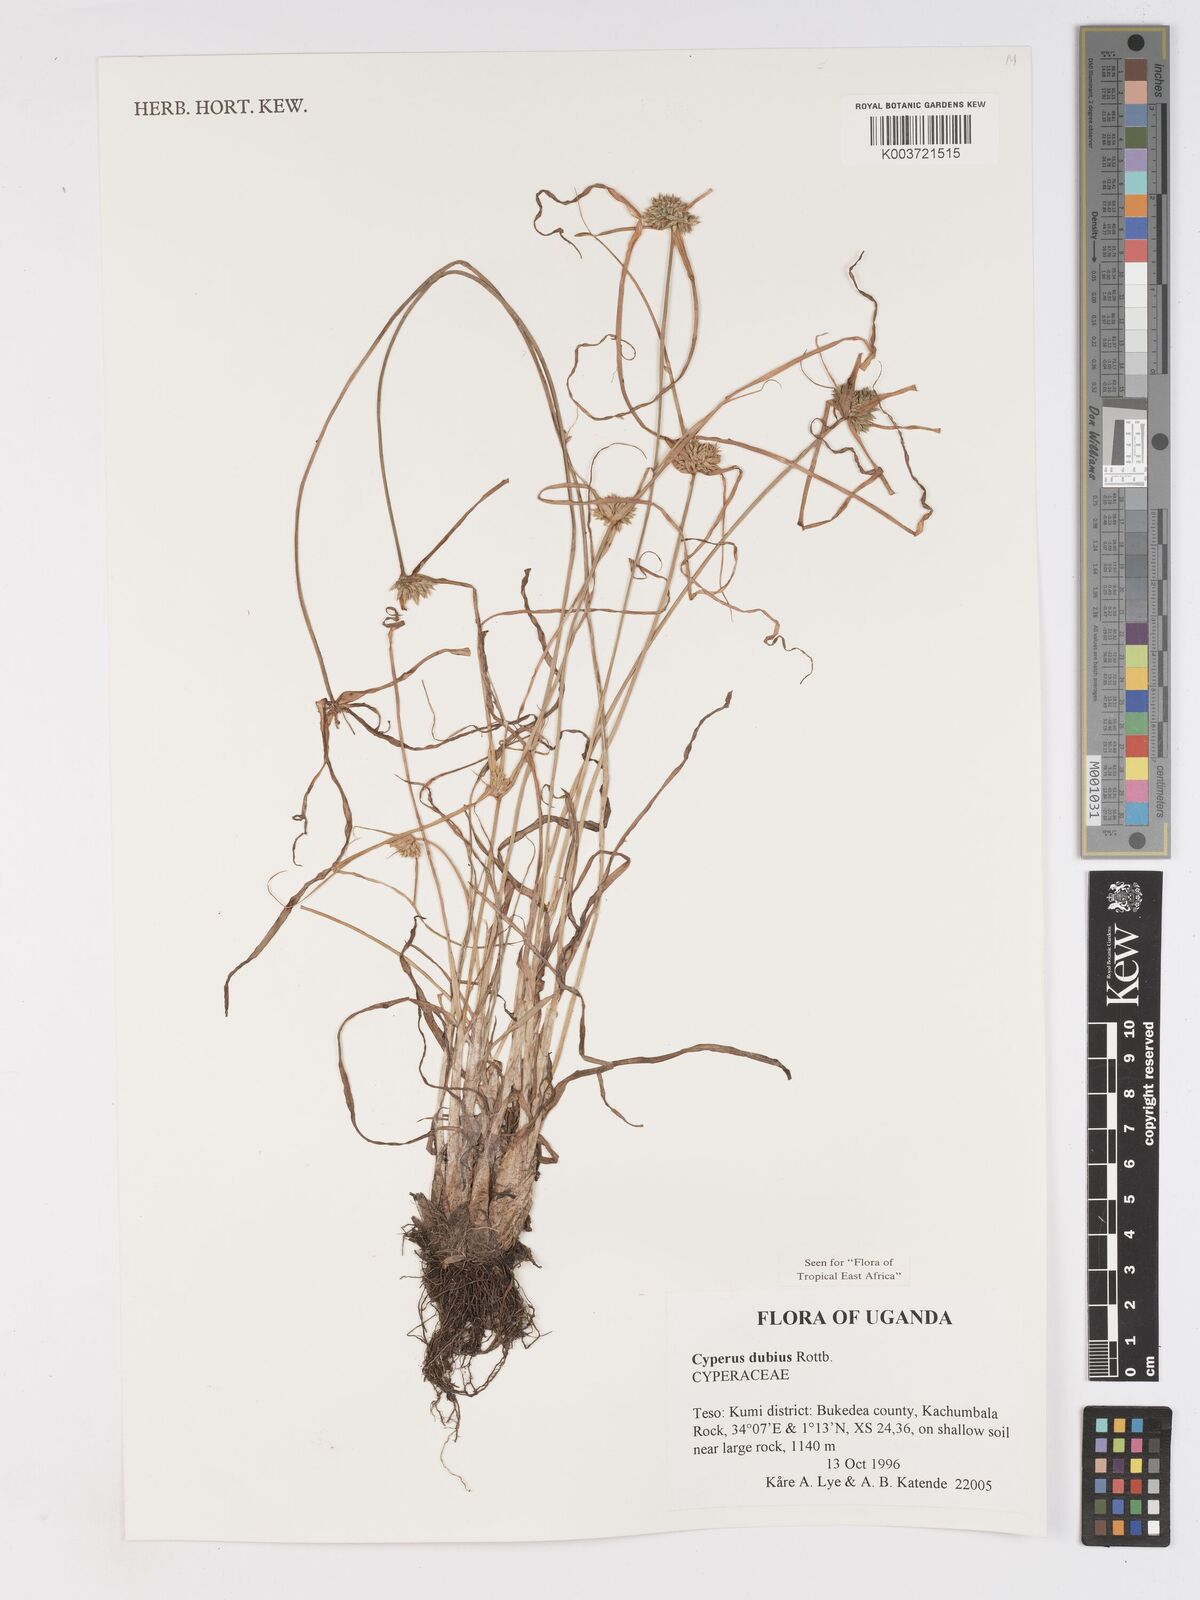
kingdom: Plantae
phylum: Tracheophyta
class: Liliopsida
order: Poales
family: Cyperaceae
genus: Cyperus
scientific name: Cyperus dubius
